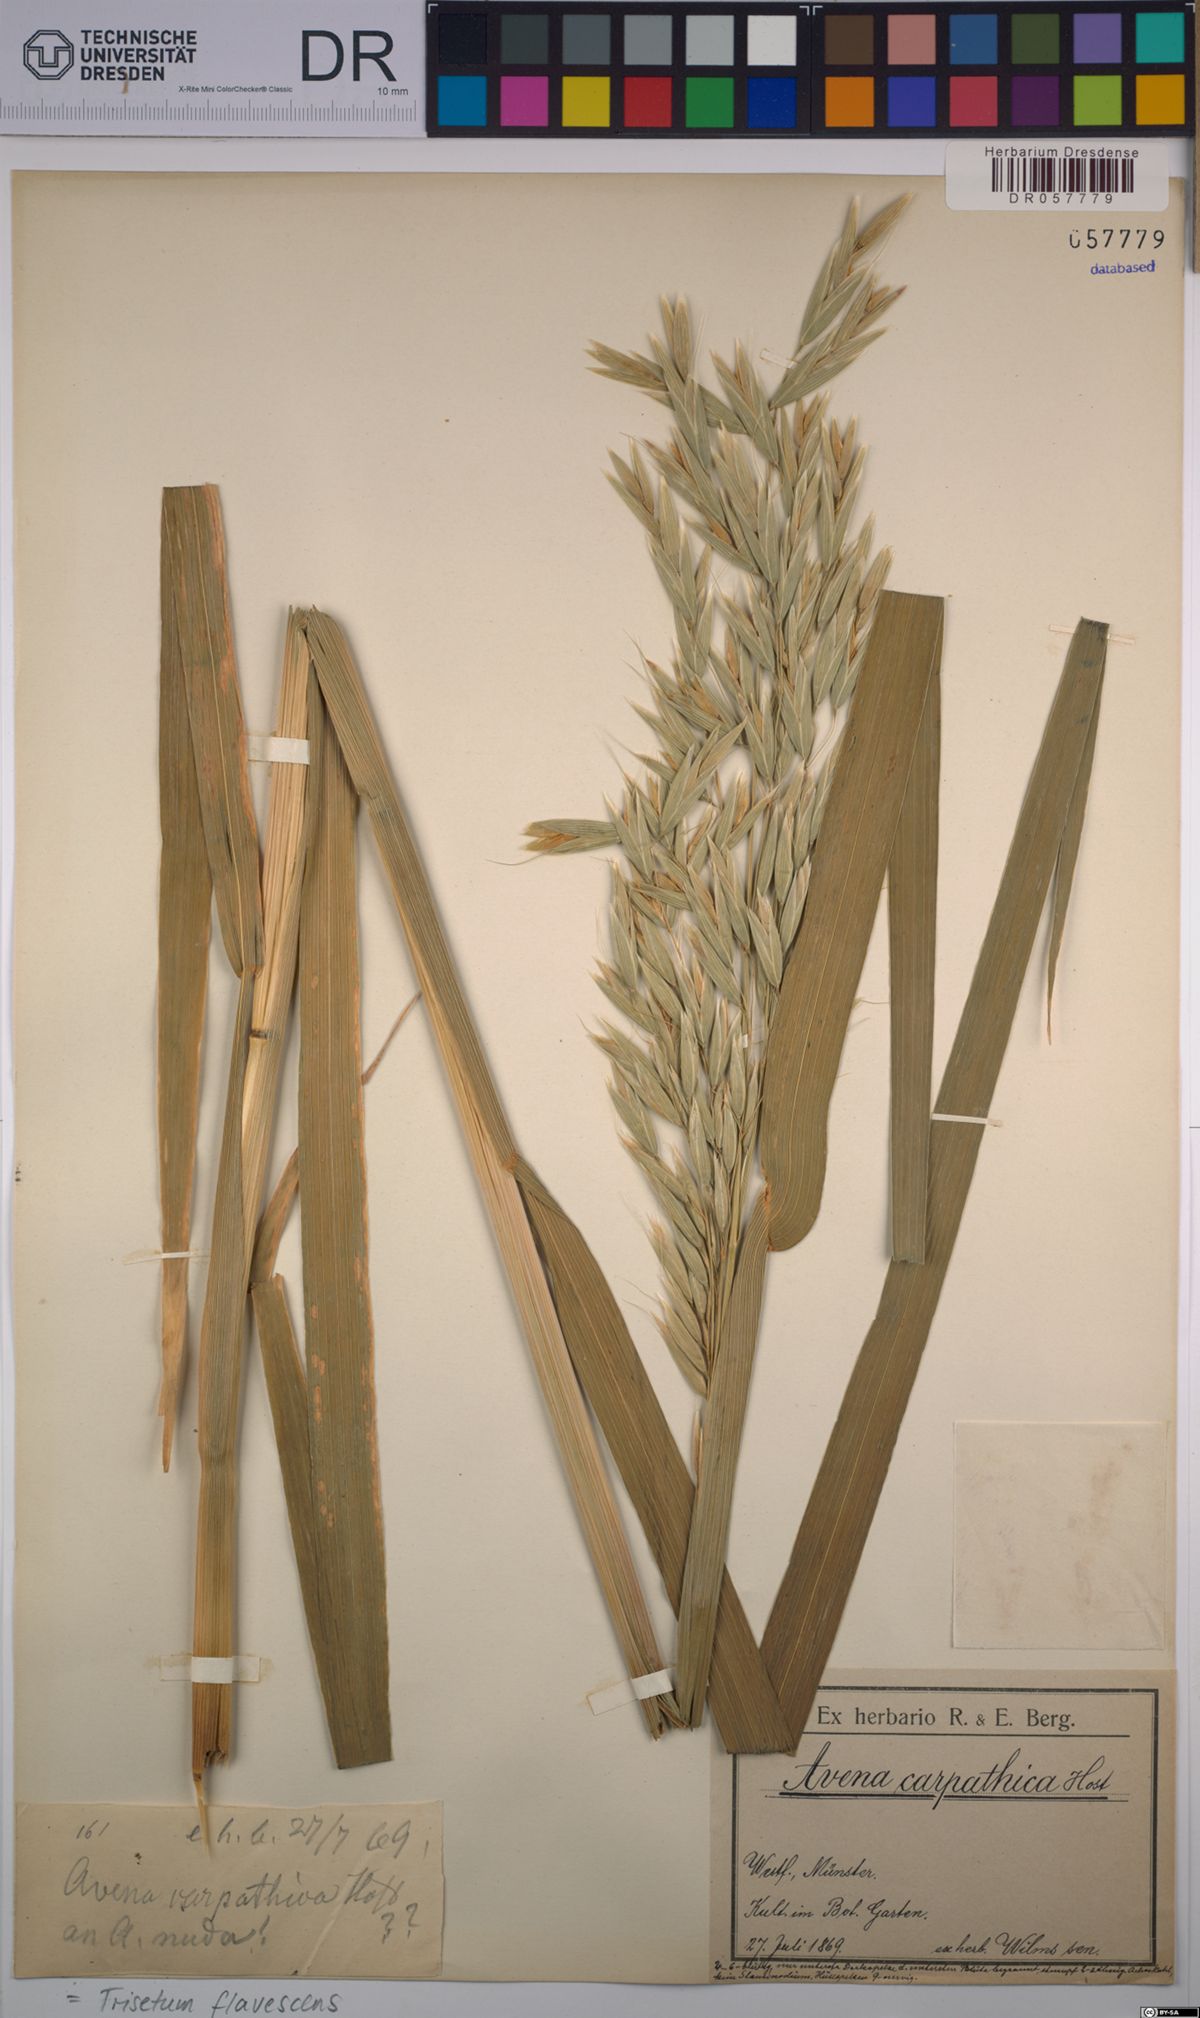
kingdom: Plantae
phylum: Tracheophyta
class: Liliopsida
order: Poales
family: Poaceae
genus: Trisetum
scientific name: Trisetum flavescens
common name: Yellow oat-grass
